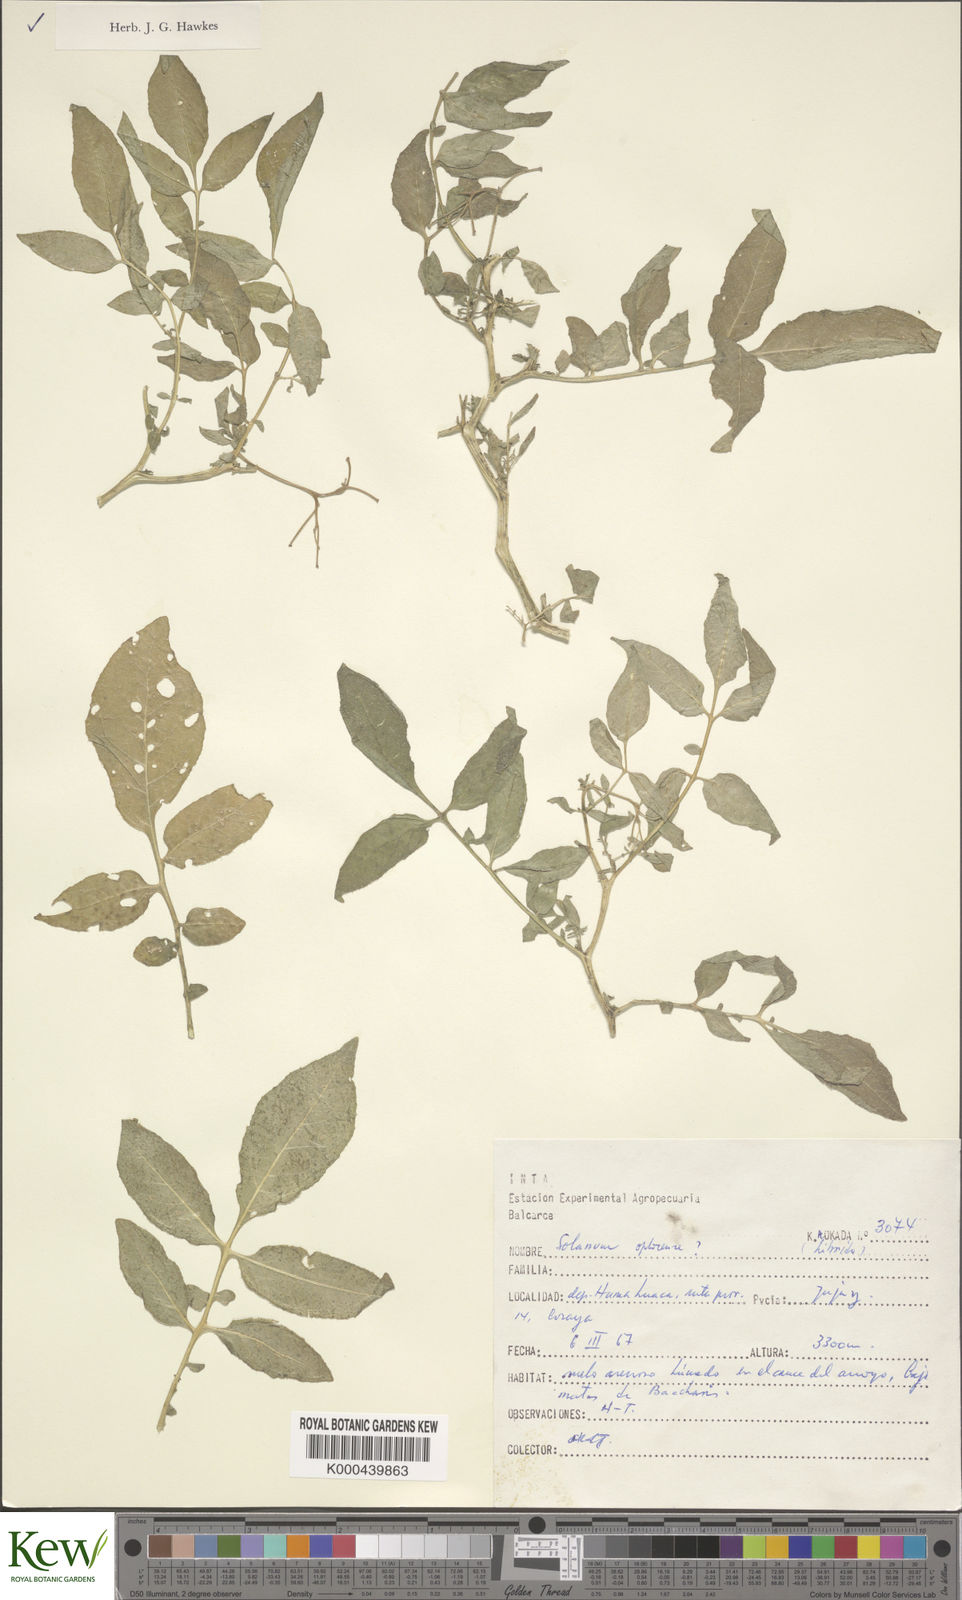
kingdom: Plantae
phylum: Tracheophyta
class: Magnoliopsida
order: Solanales
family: Solanaceae
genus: Solanum
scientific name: Solanum brevicaule
